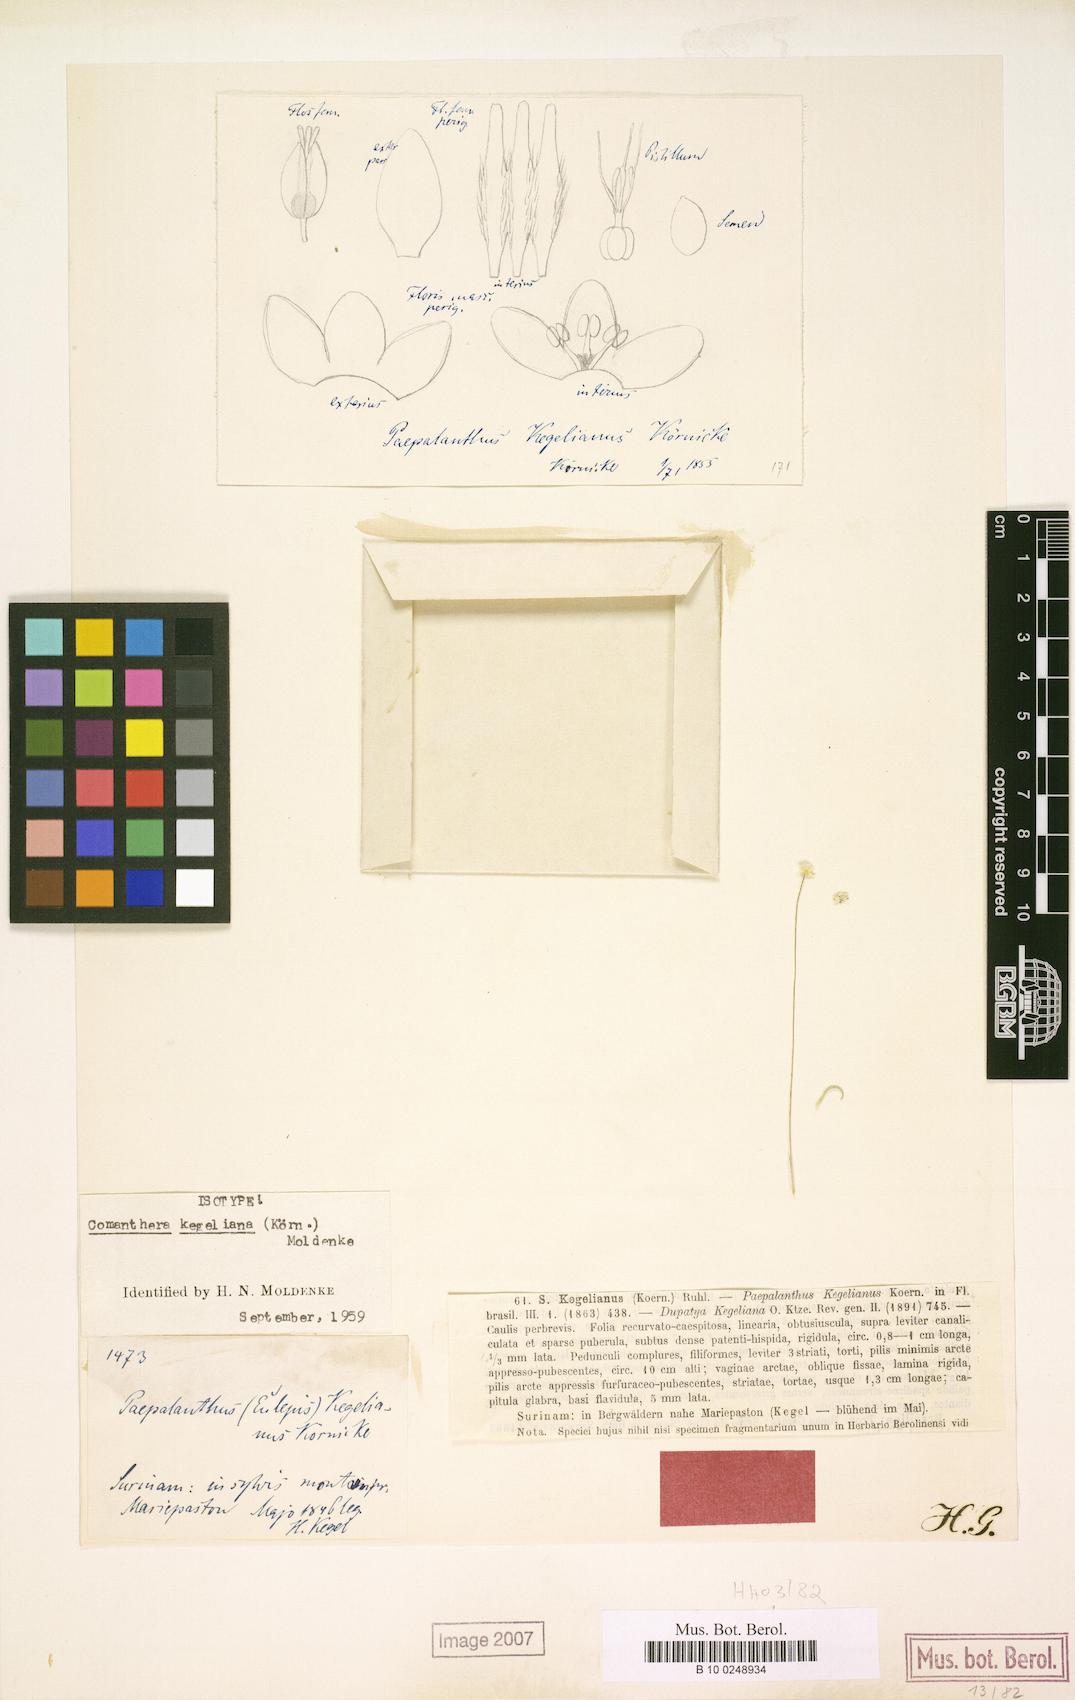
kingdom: Plantae
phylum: Tracheophyta
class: Liliopsida
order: Poales
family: Eriocaulaceae
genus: Comanthera
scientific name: Comanthera kegeliana
